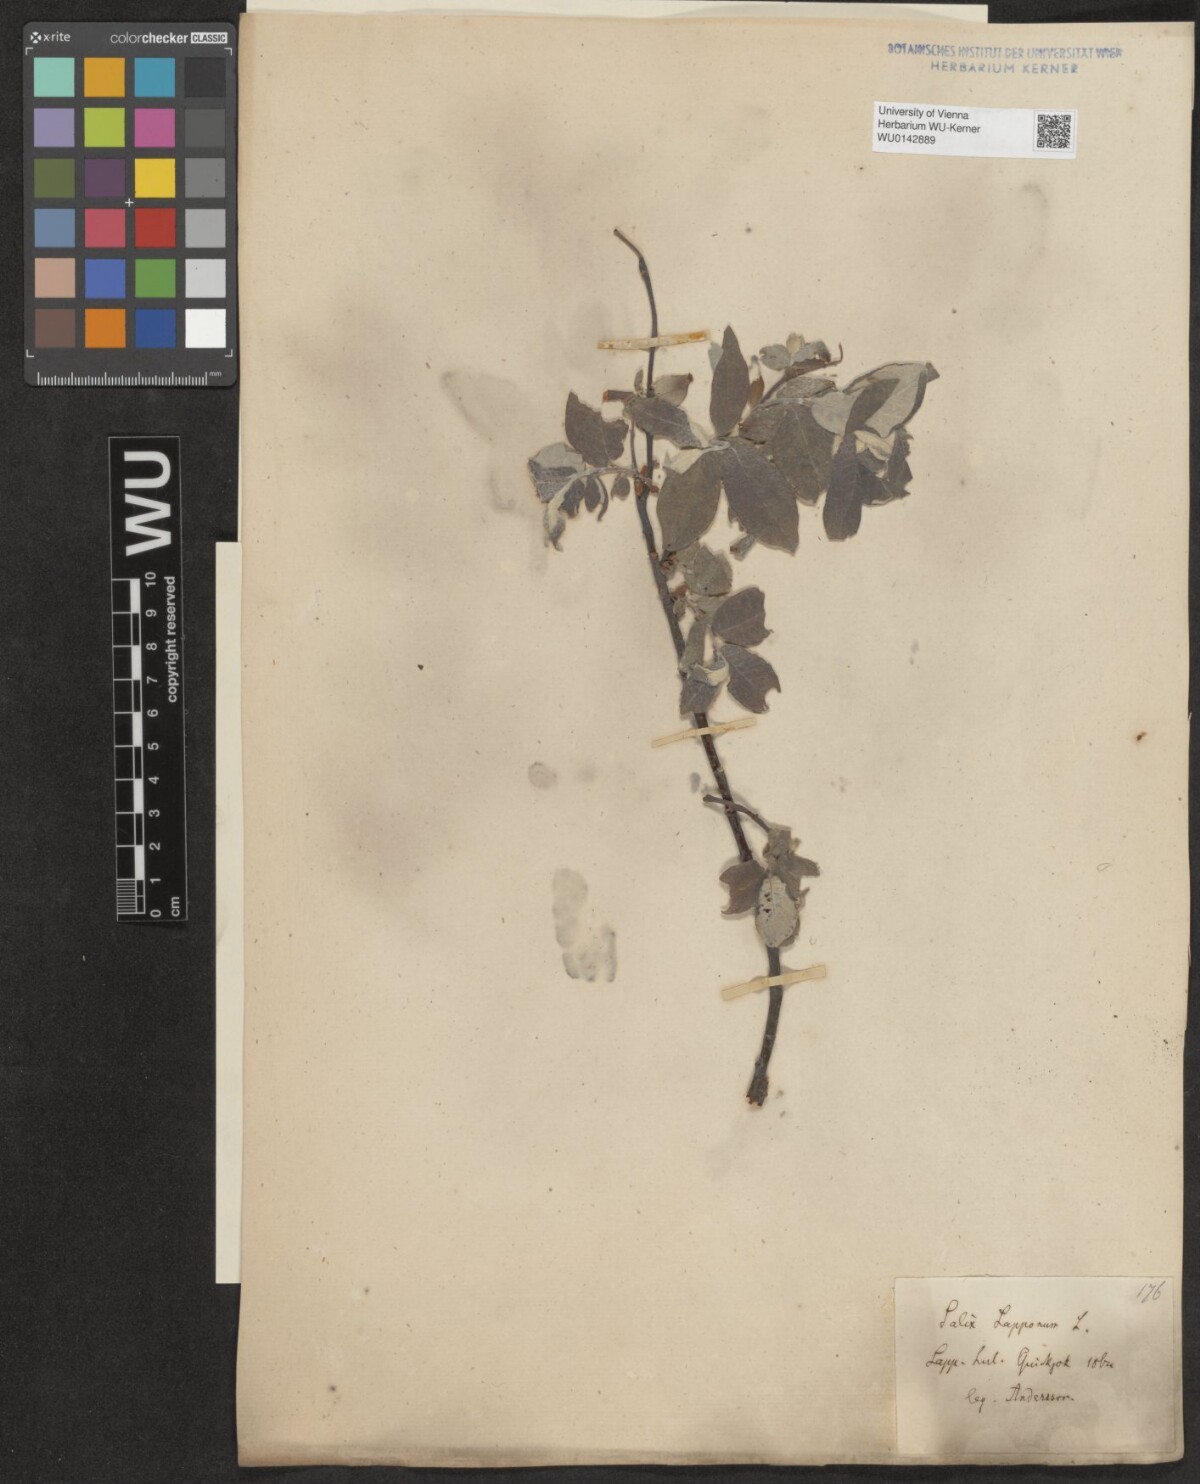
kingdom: Plantae
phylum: Tracheophyta
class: Magnoliopsida
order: Malpighiales
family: Salicaceae
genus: Salix
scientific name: Salix lapponum
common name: Downy willow
